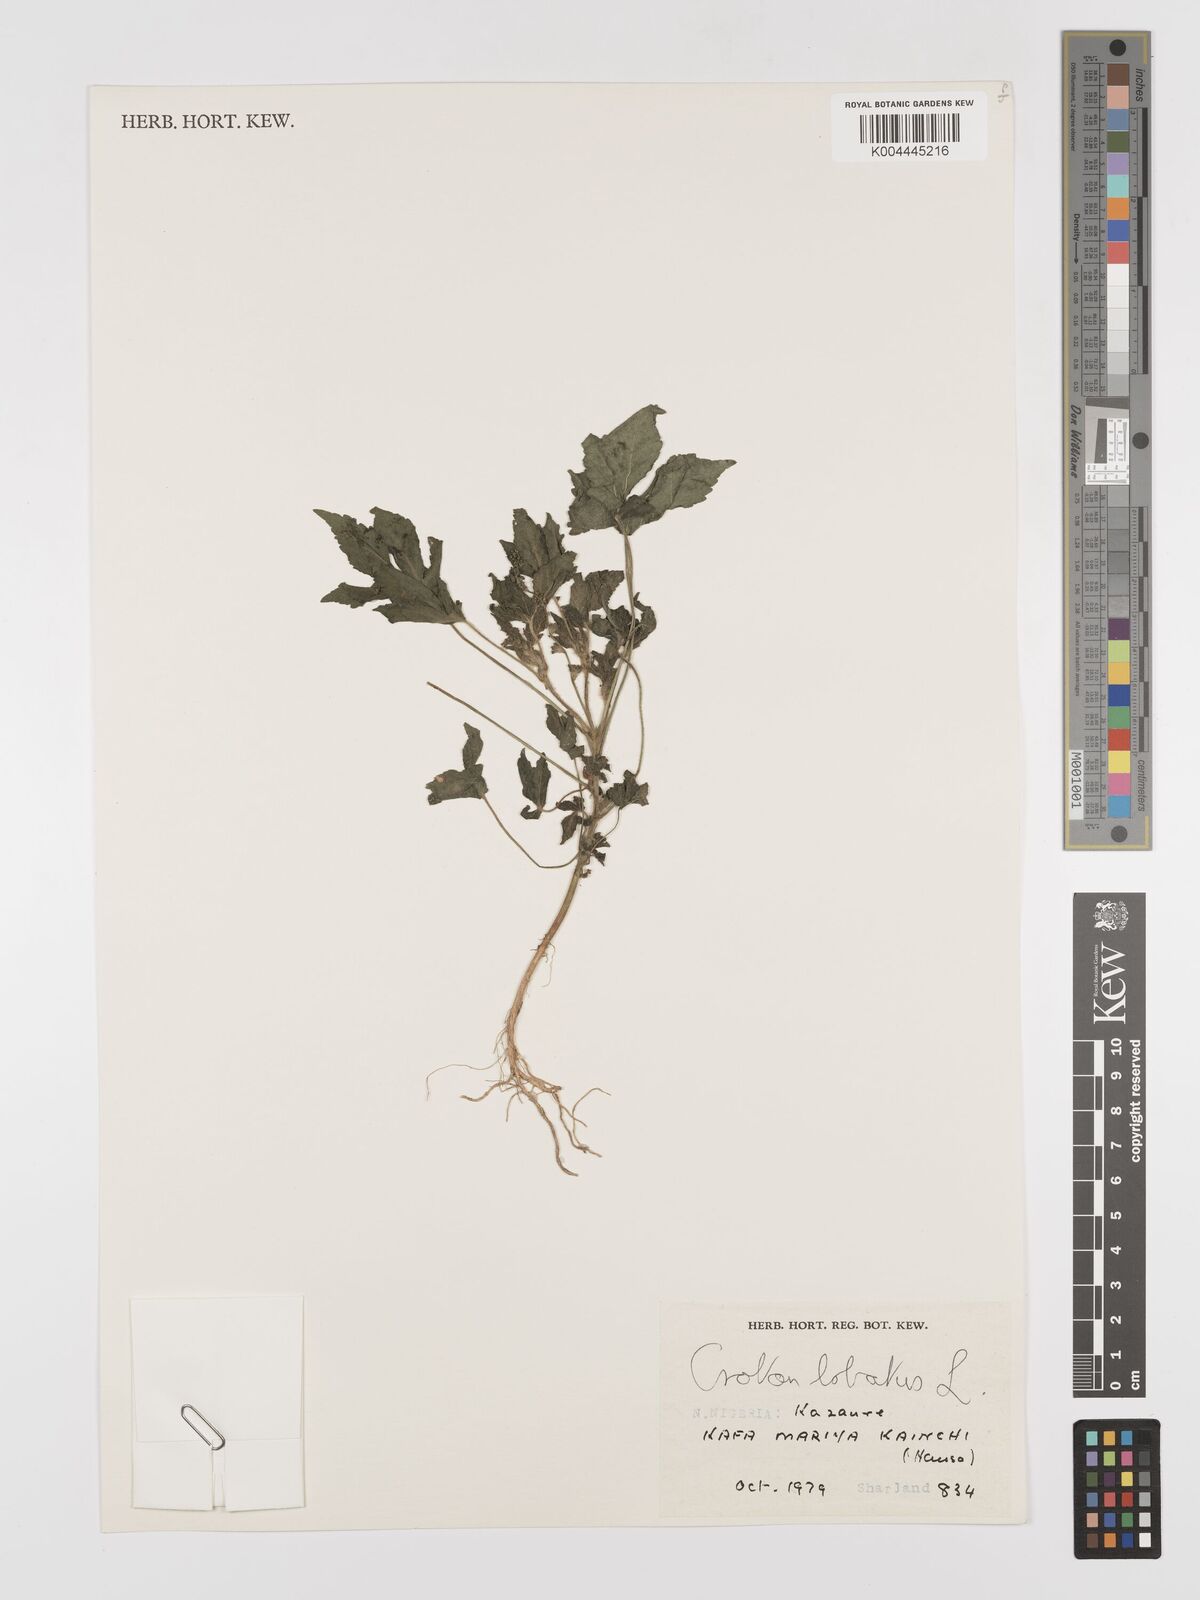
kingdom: Plantae
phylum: Tracheophyta
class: Magnoliopsida
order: Malpighiales
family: Euphorbiaceae
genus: Astraea
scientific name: Astraea lobata
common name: Lobed croton
